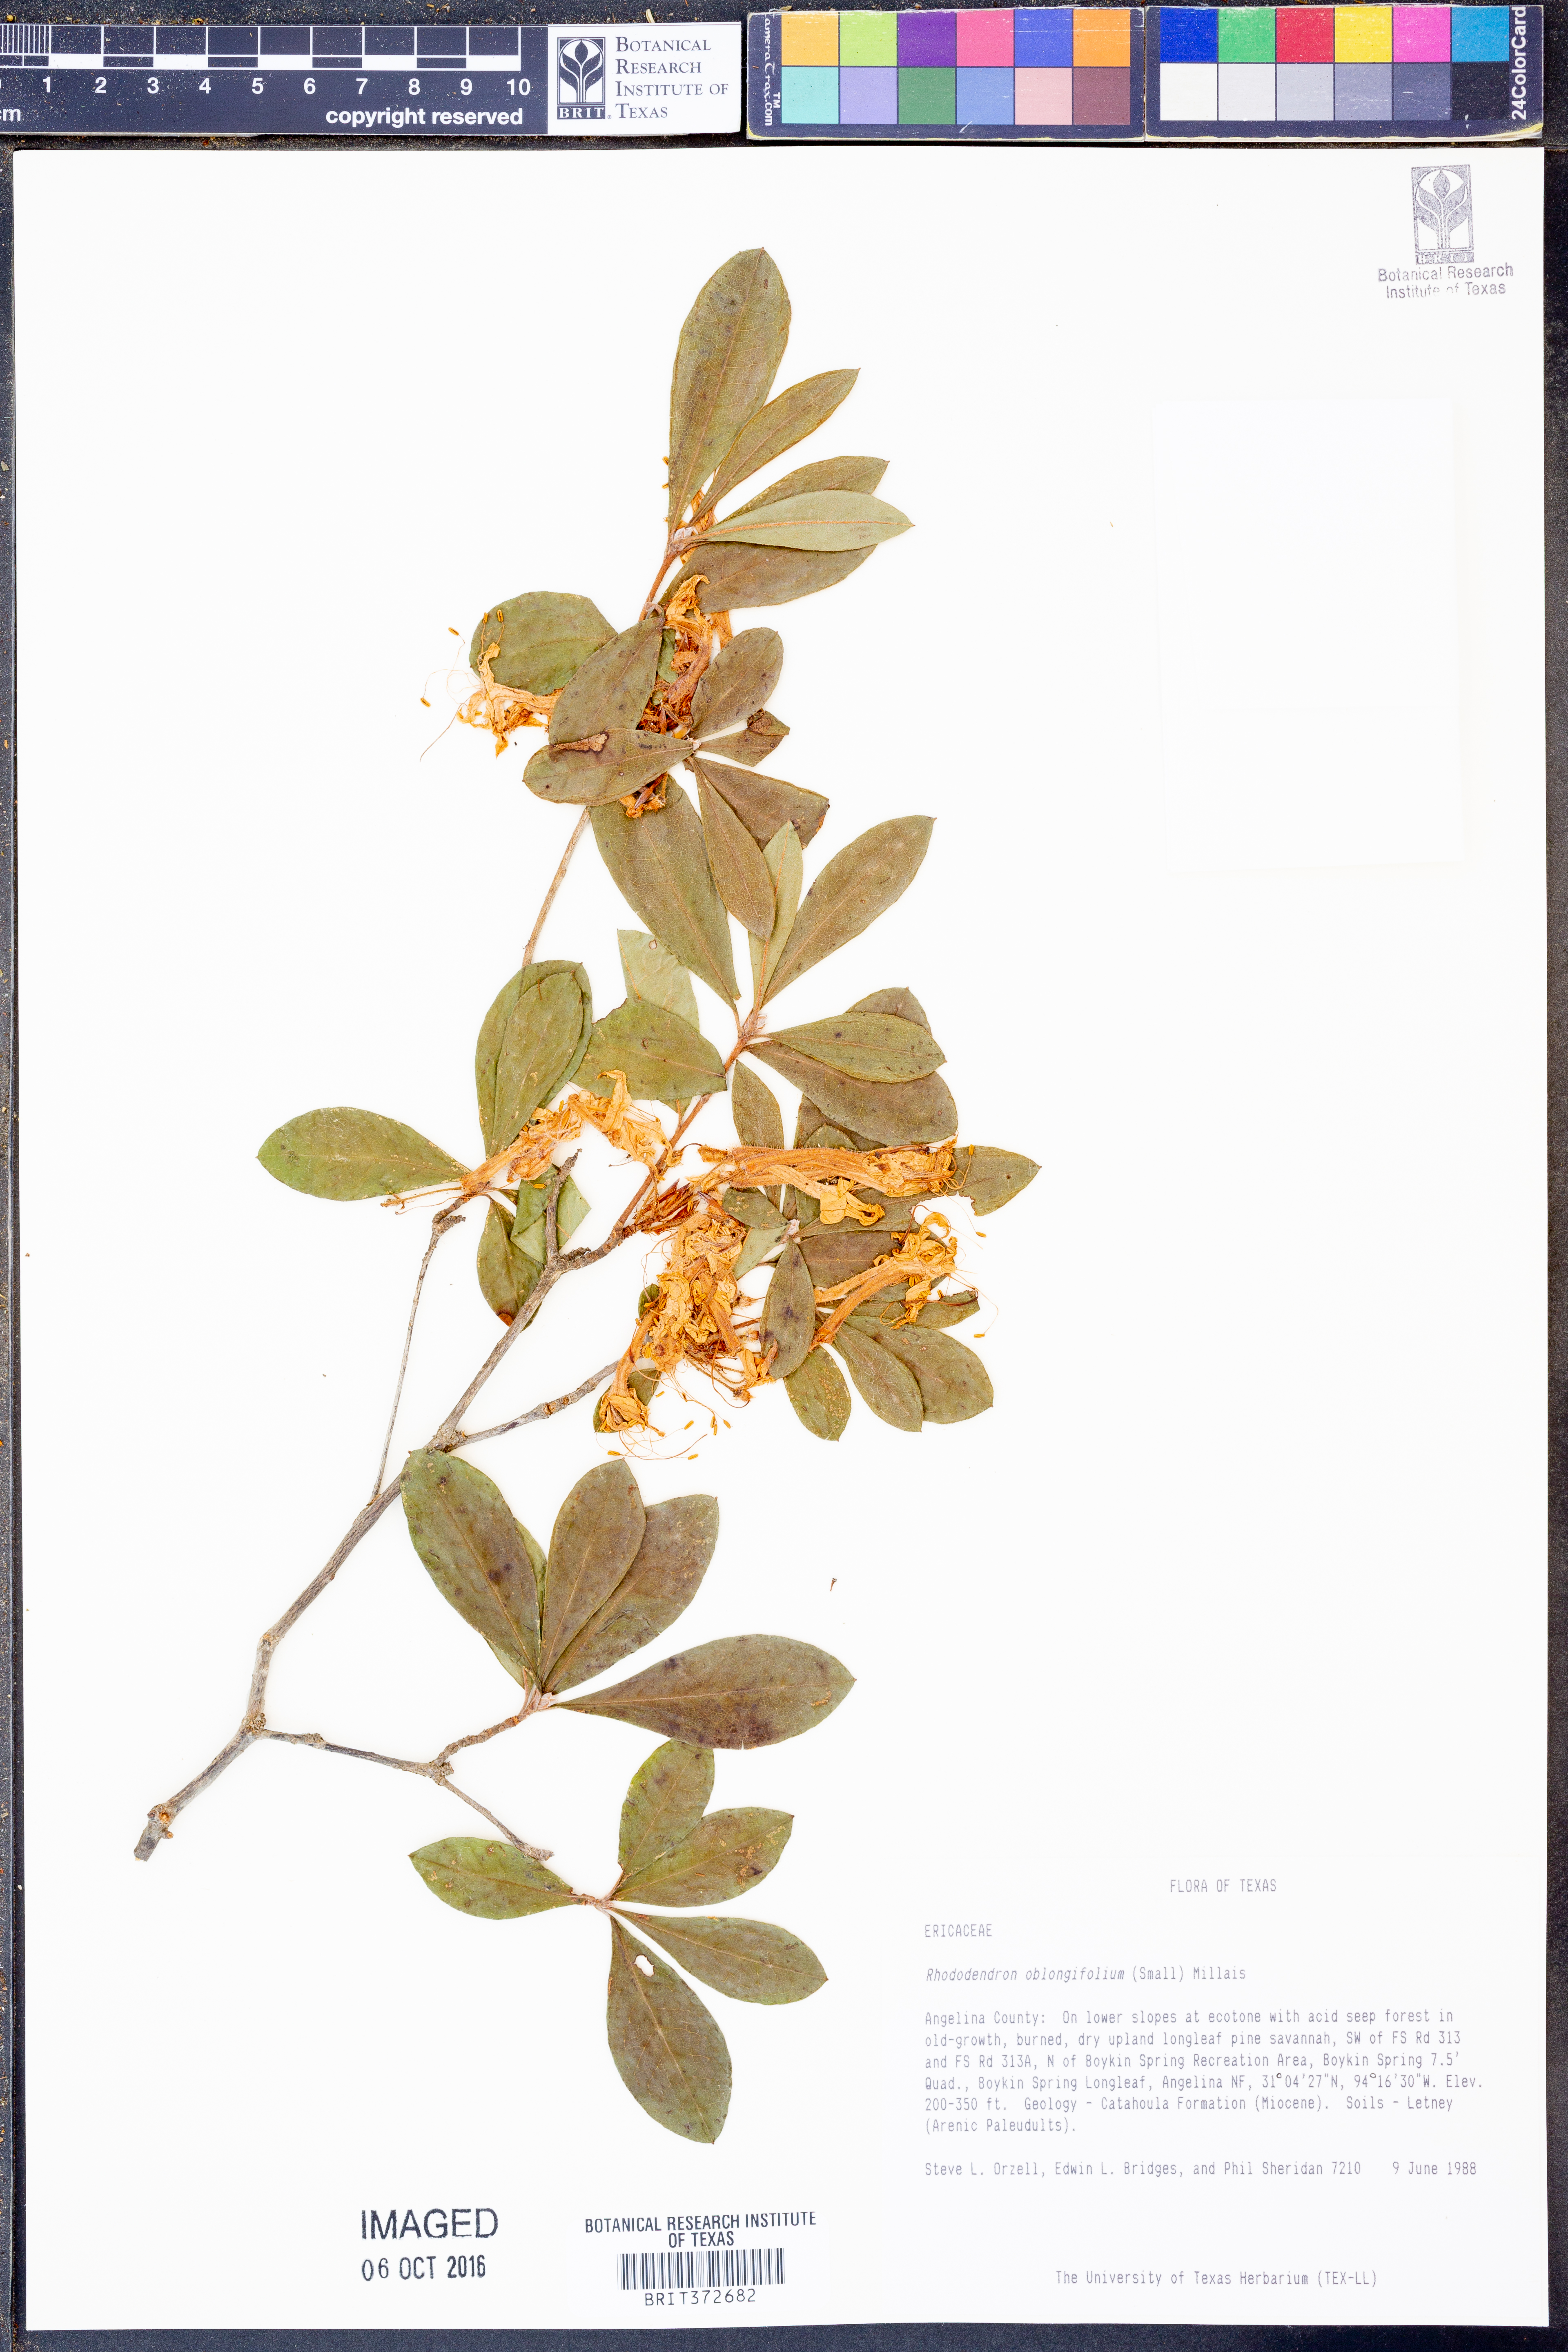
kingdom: Plantae
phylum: Tracheophyta
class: Magnoliopsida
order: Ericales
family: Ericaceae
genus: Rhododendron
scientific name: Rhododendron viscosum
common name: Clammy azalea
